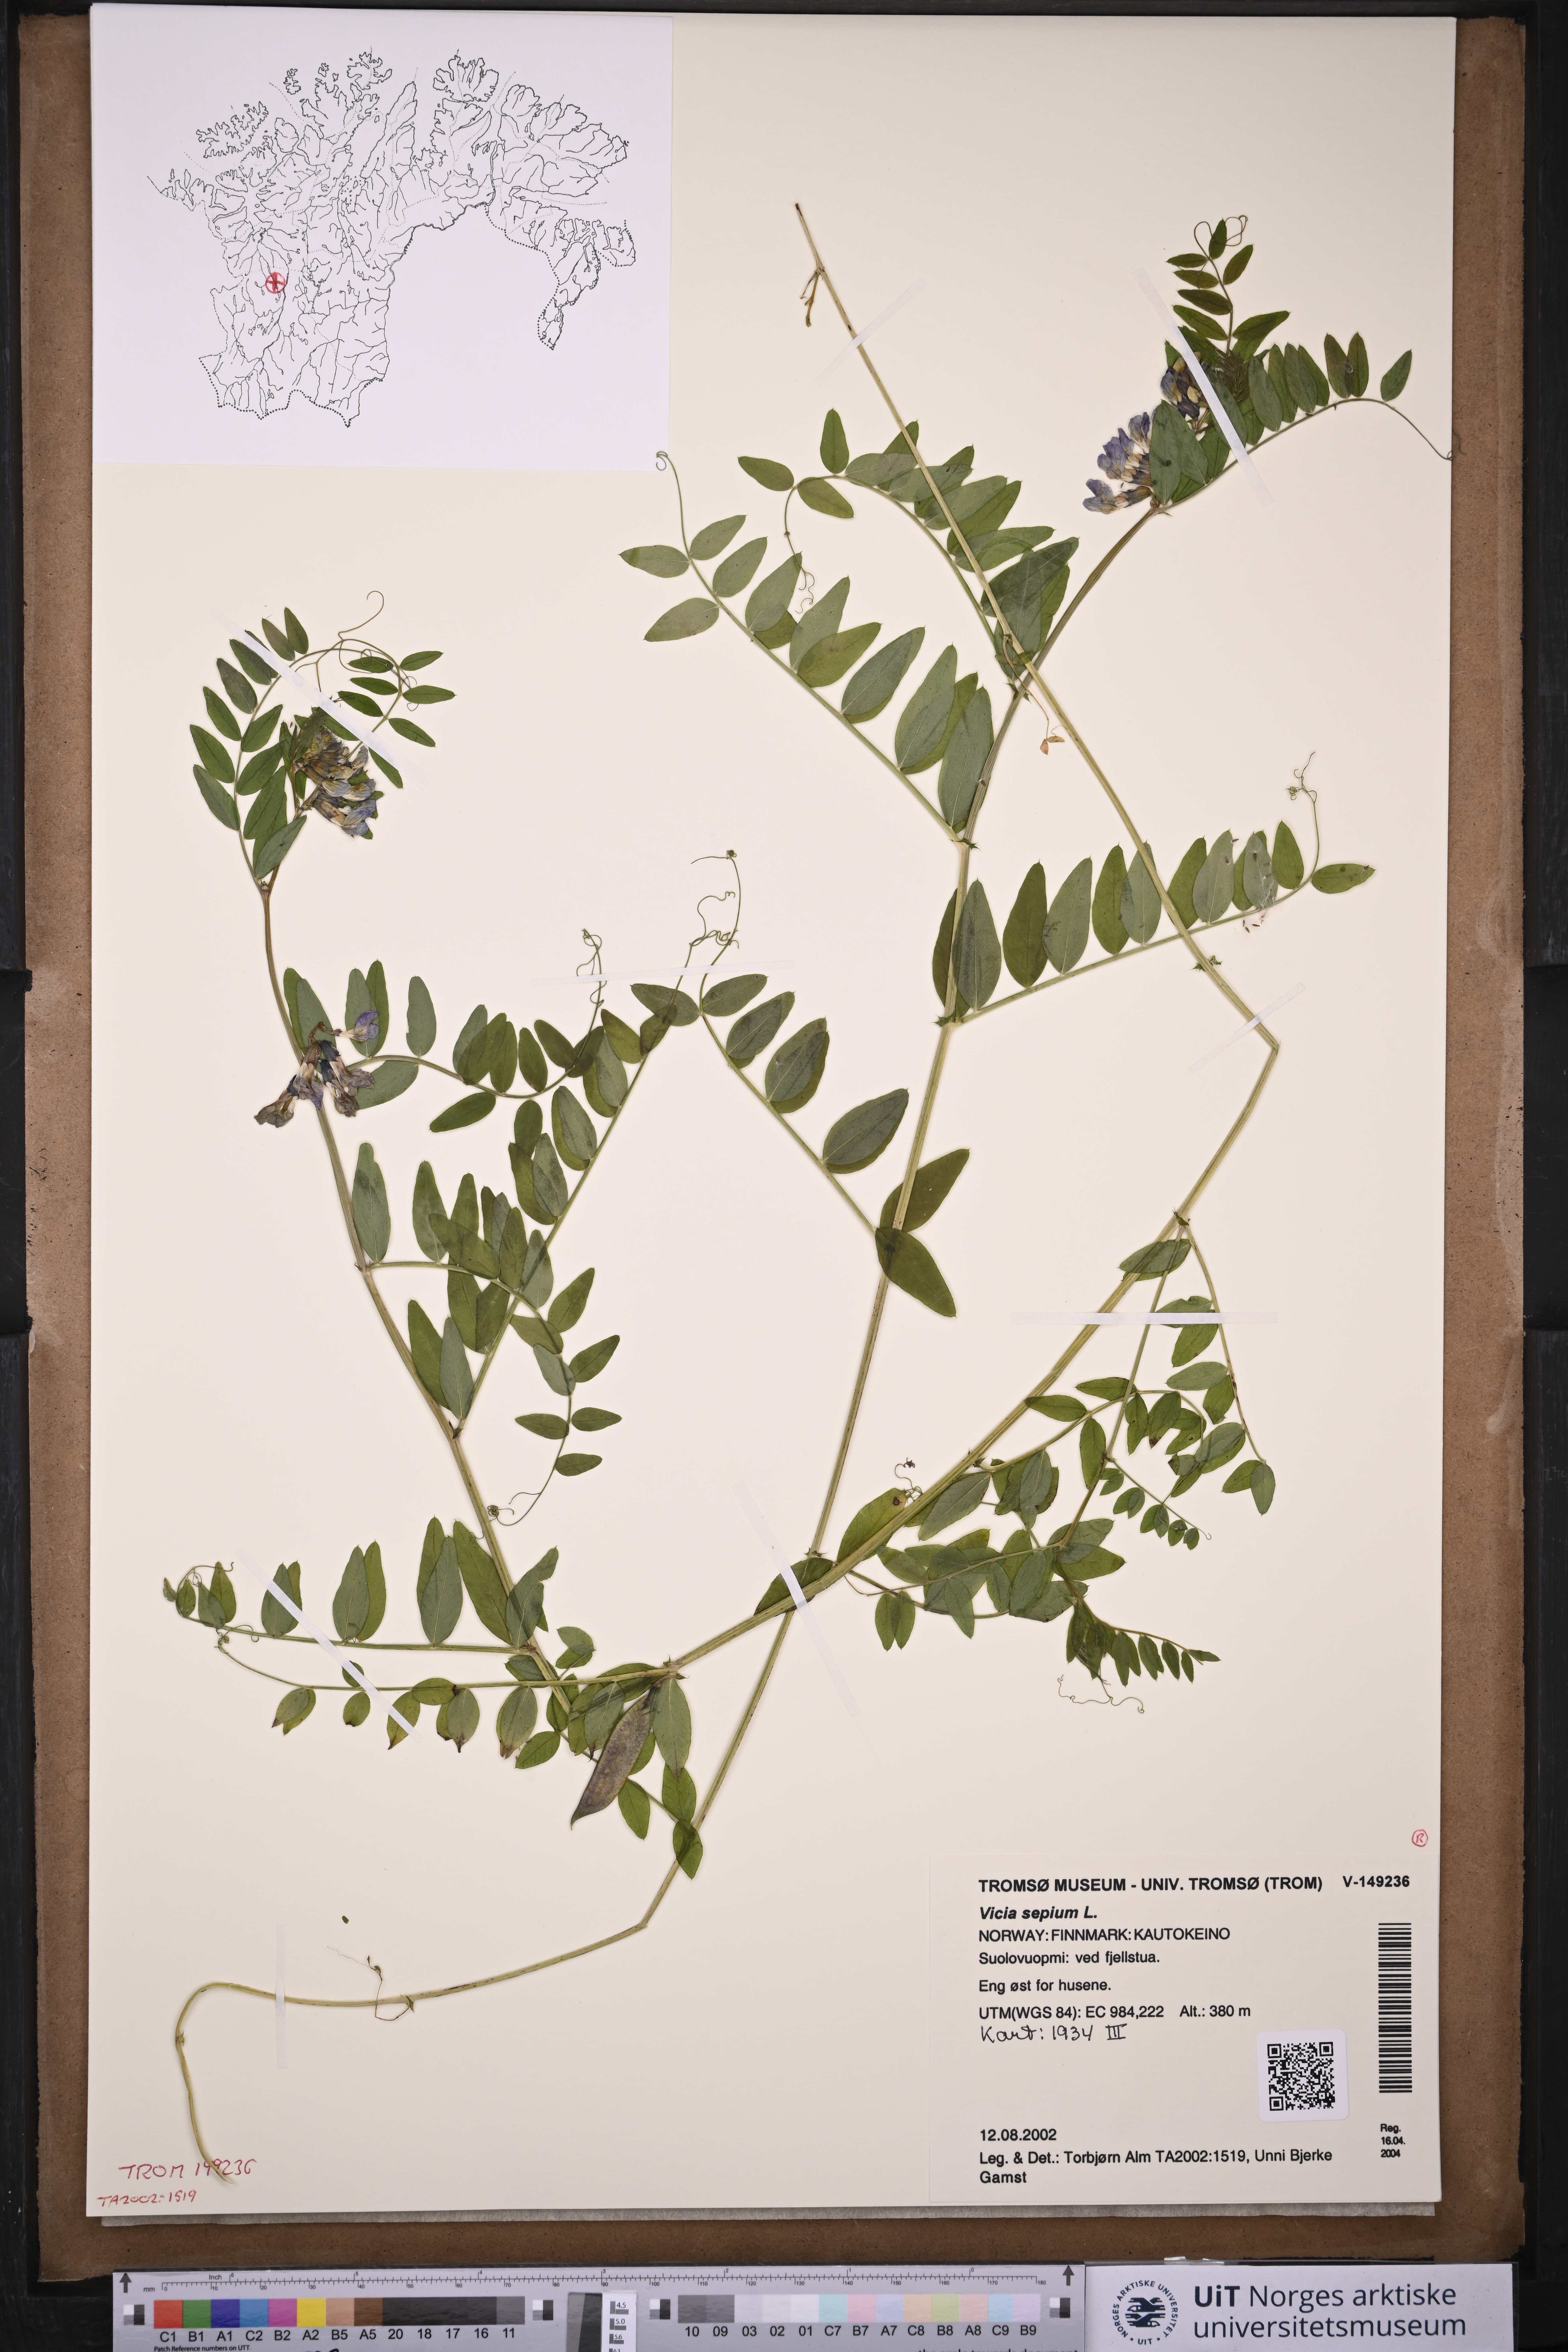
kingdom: Plantae
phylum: Tracheophyta
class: Magnoliopsida
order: Fabales
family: Fabaceae
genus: Vicia
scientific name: Vicia sepium
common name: Bush vetch
